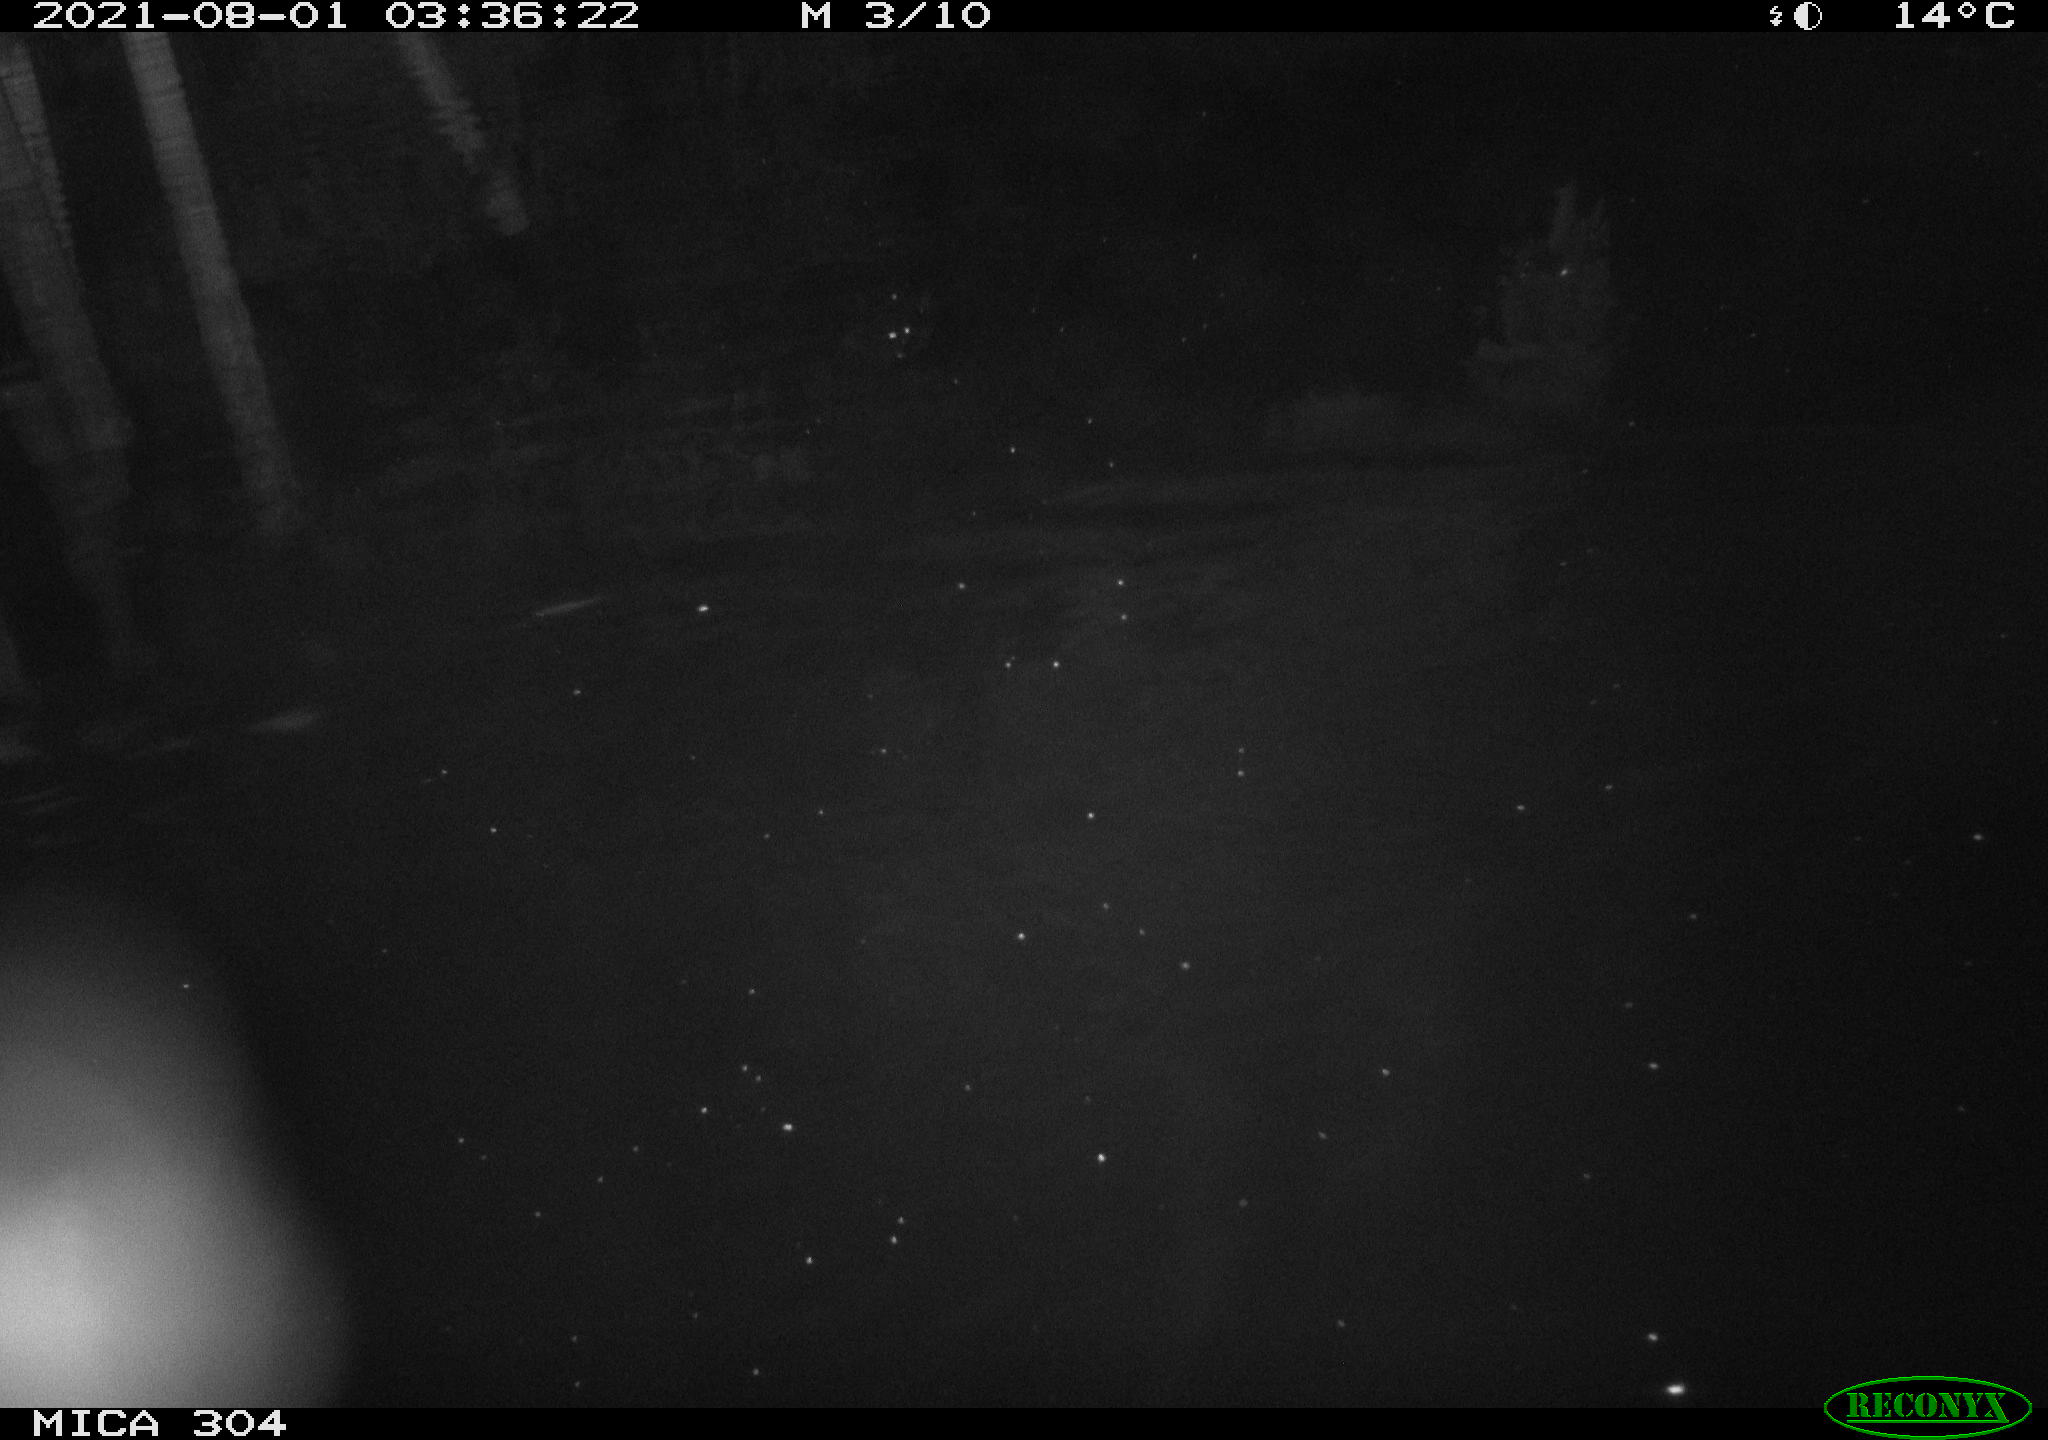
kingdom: Animalia
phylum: Chordata
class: Mammalia
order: Rodentia
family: Muridae
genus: Rattus
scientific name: Rattus norvegicus
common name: Brown rat
